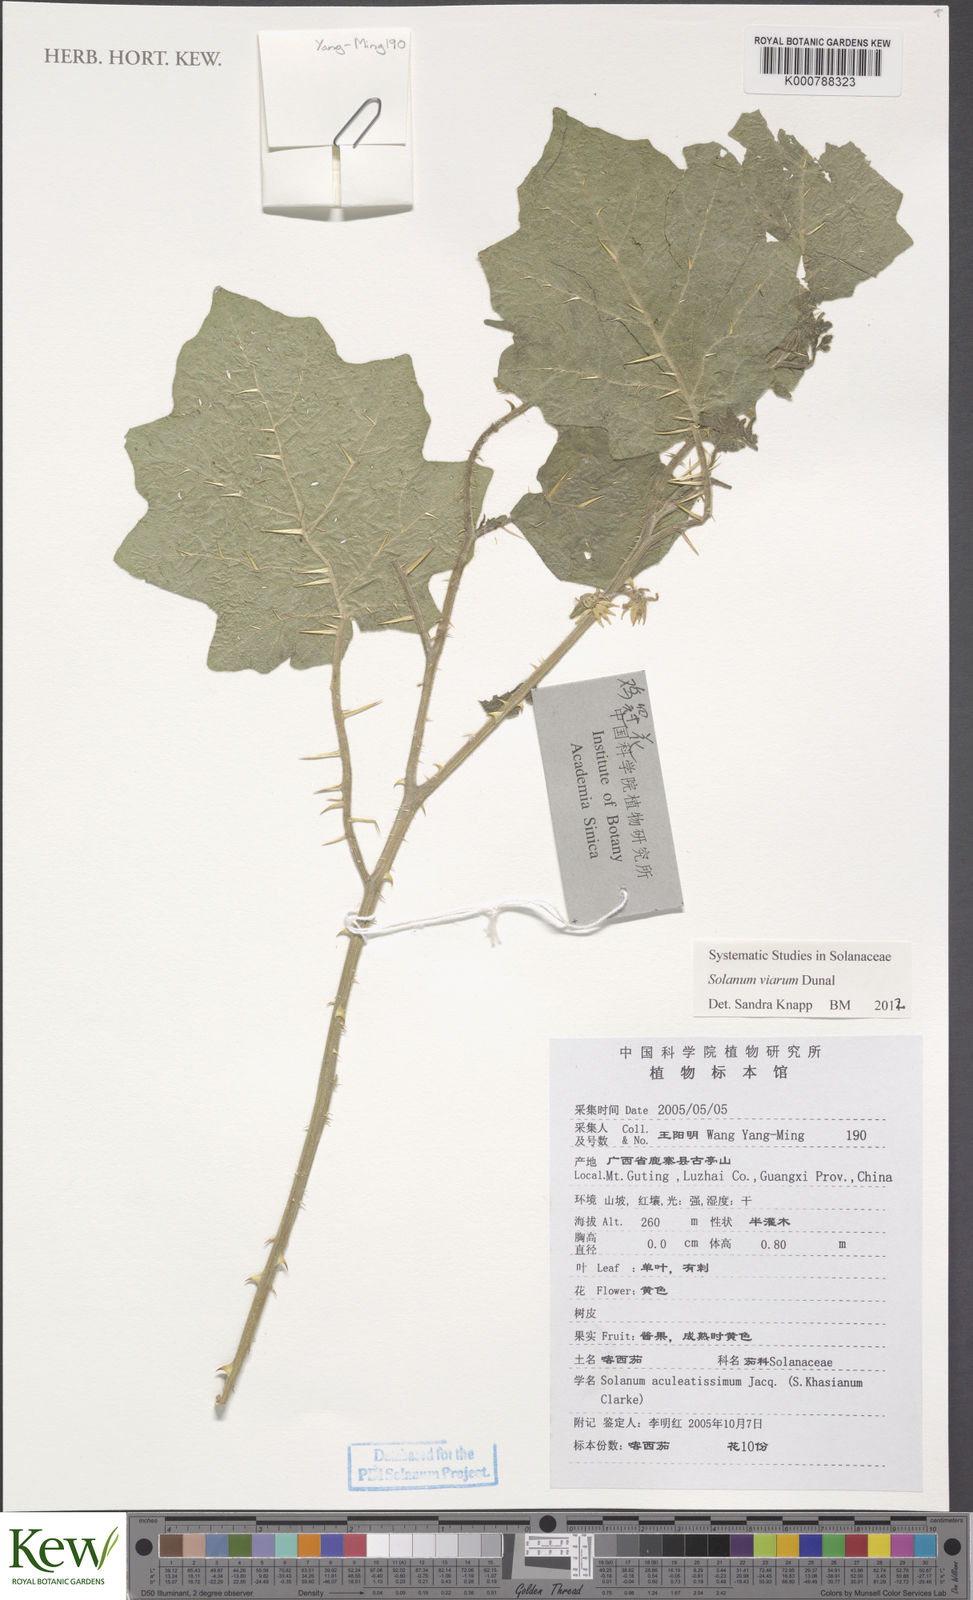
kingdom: Plantae
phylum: Tracheophyta
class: Magnoliopsida
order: Solanales
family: Solanaceae
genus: Solanum
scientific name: Solanum viarum
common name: Tropical soda apple
